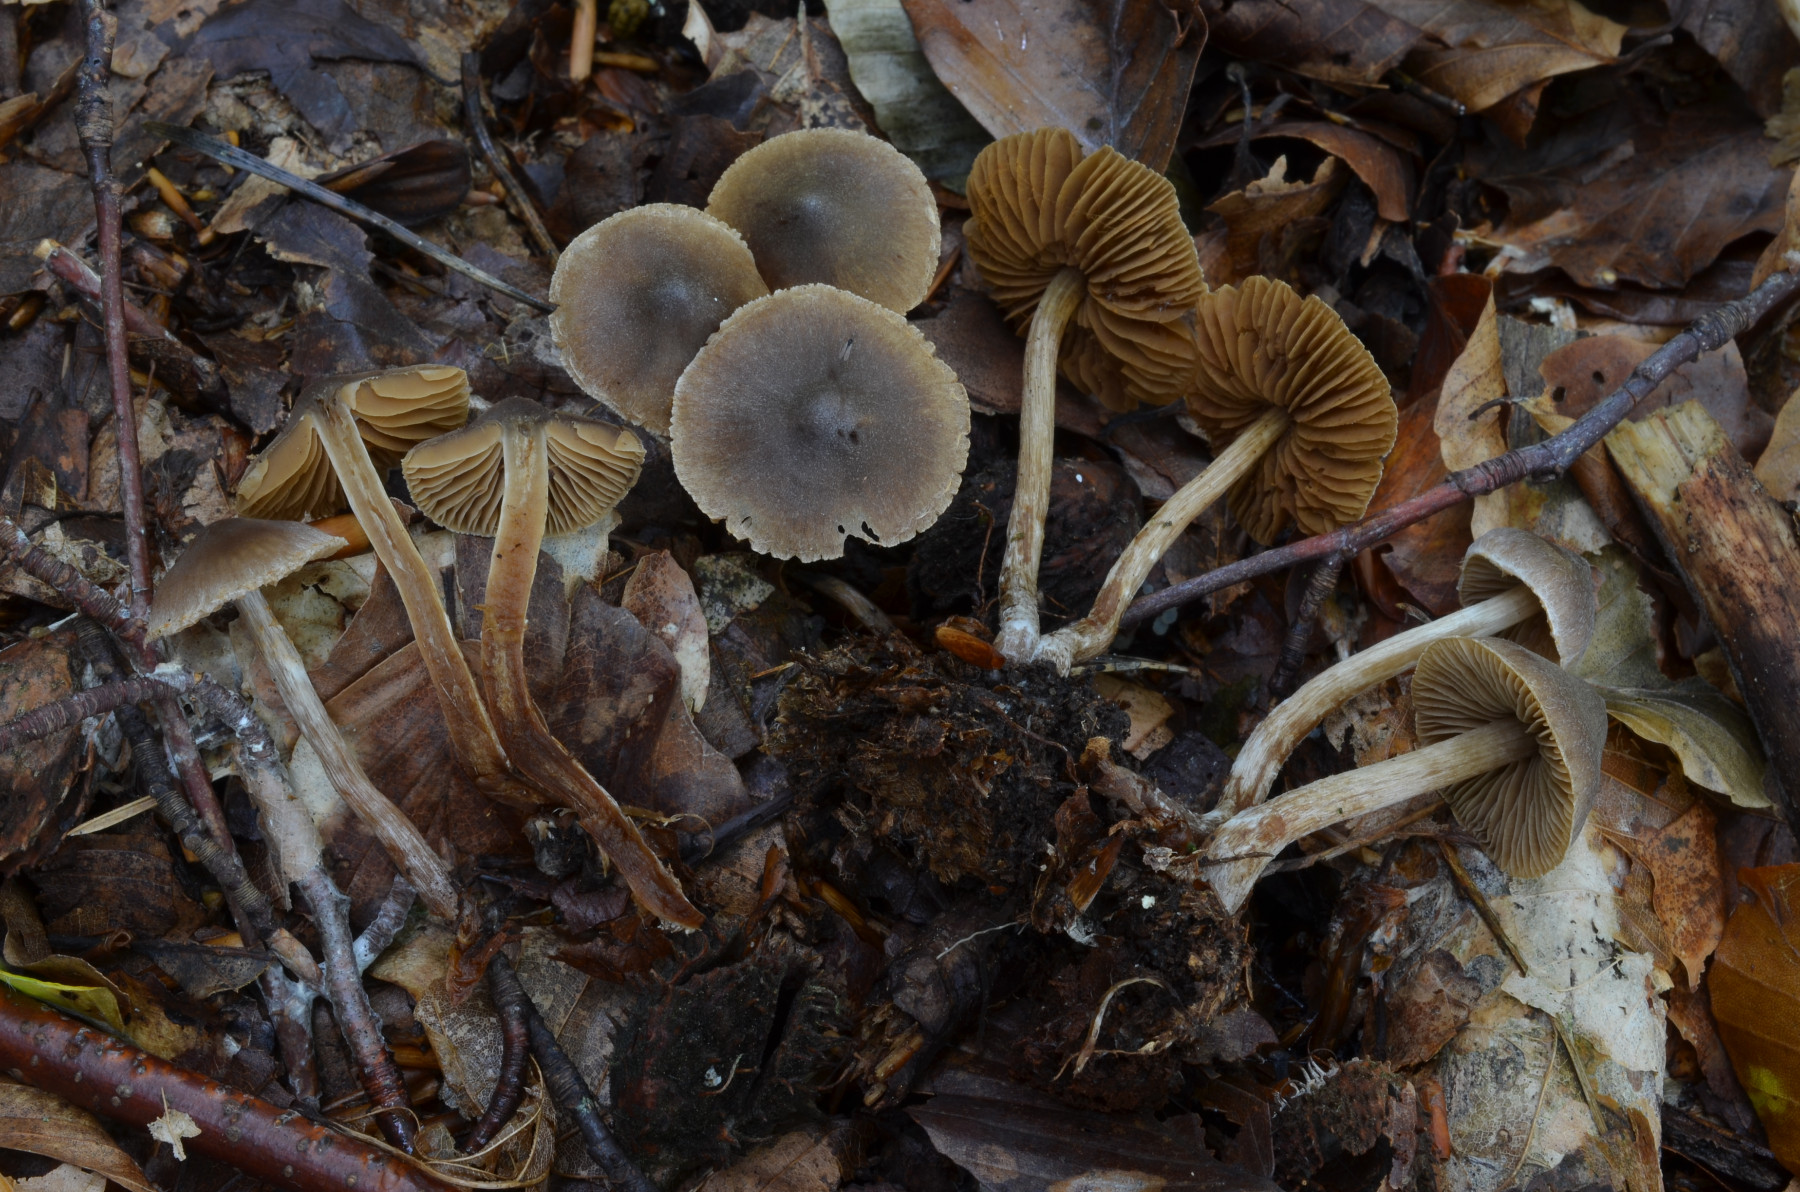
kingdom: Fungi
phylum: Basidiomycota
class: Agaricomycetes
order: Agaricales
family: Cortinariaceae
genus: Cortinarius
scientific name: Cortinarius fuscodiscus
